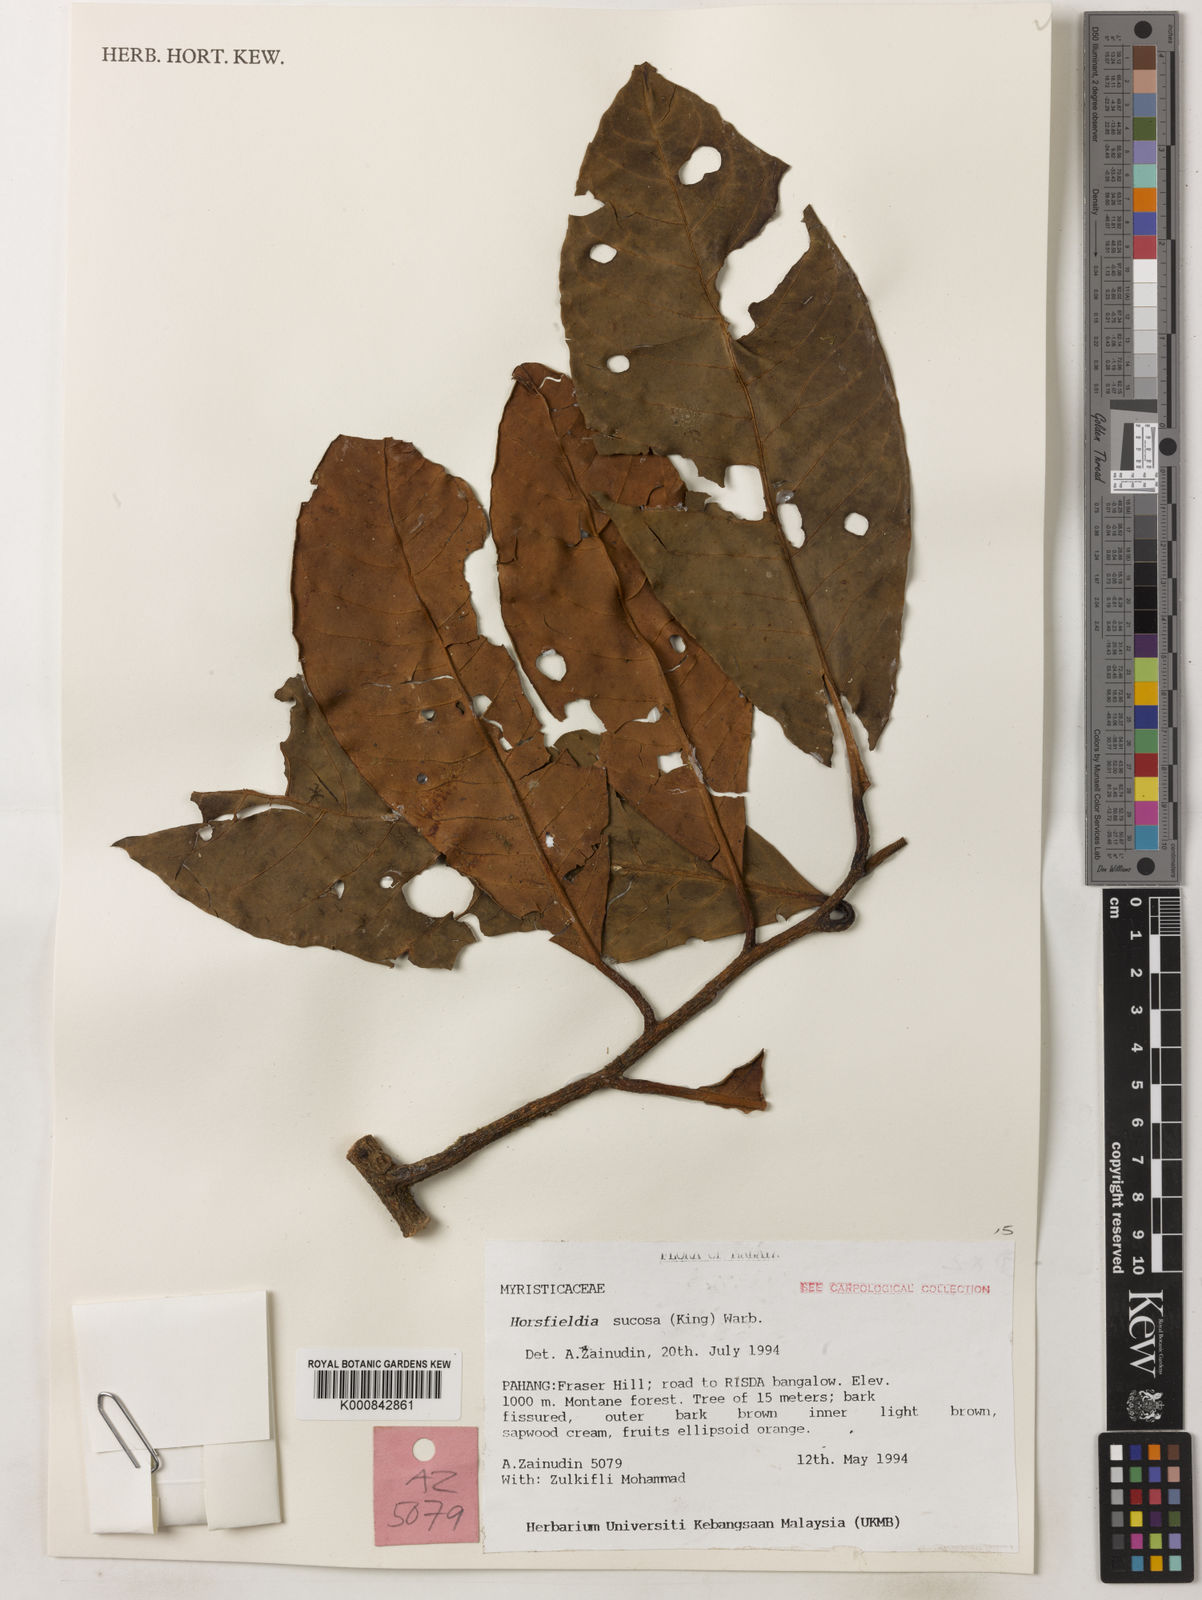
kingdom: Plantae
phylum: Tracheophyta
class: Magnoliopsida
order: Magnoliales
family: Myristicaceae
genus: Horsfieldia
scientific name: Horsfieldia sucosa
